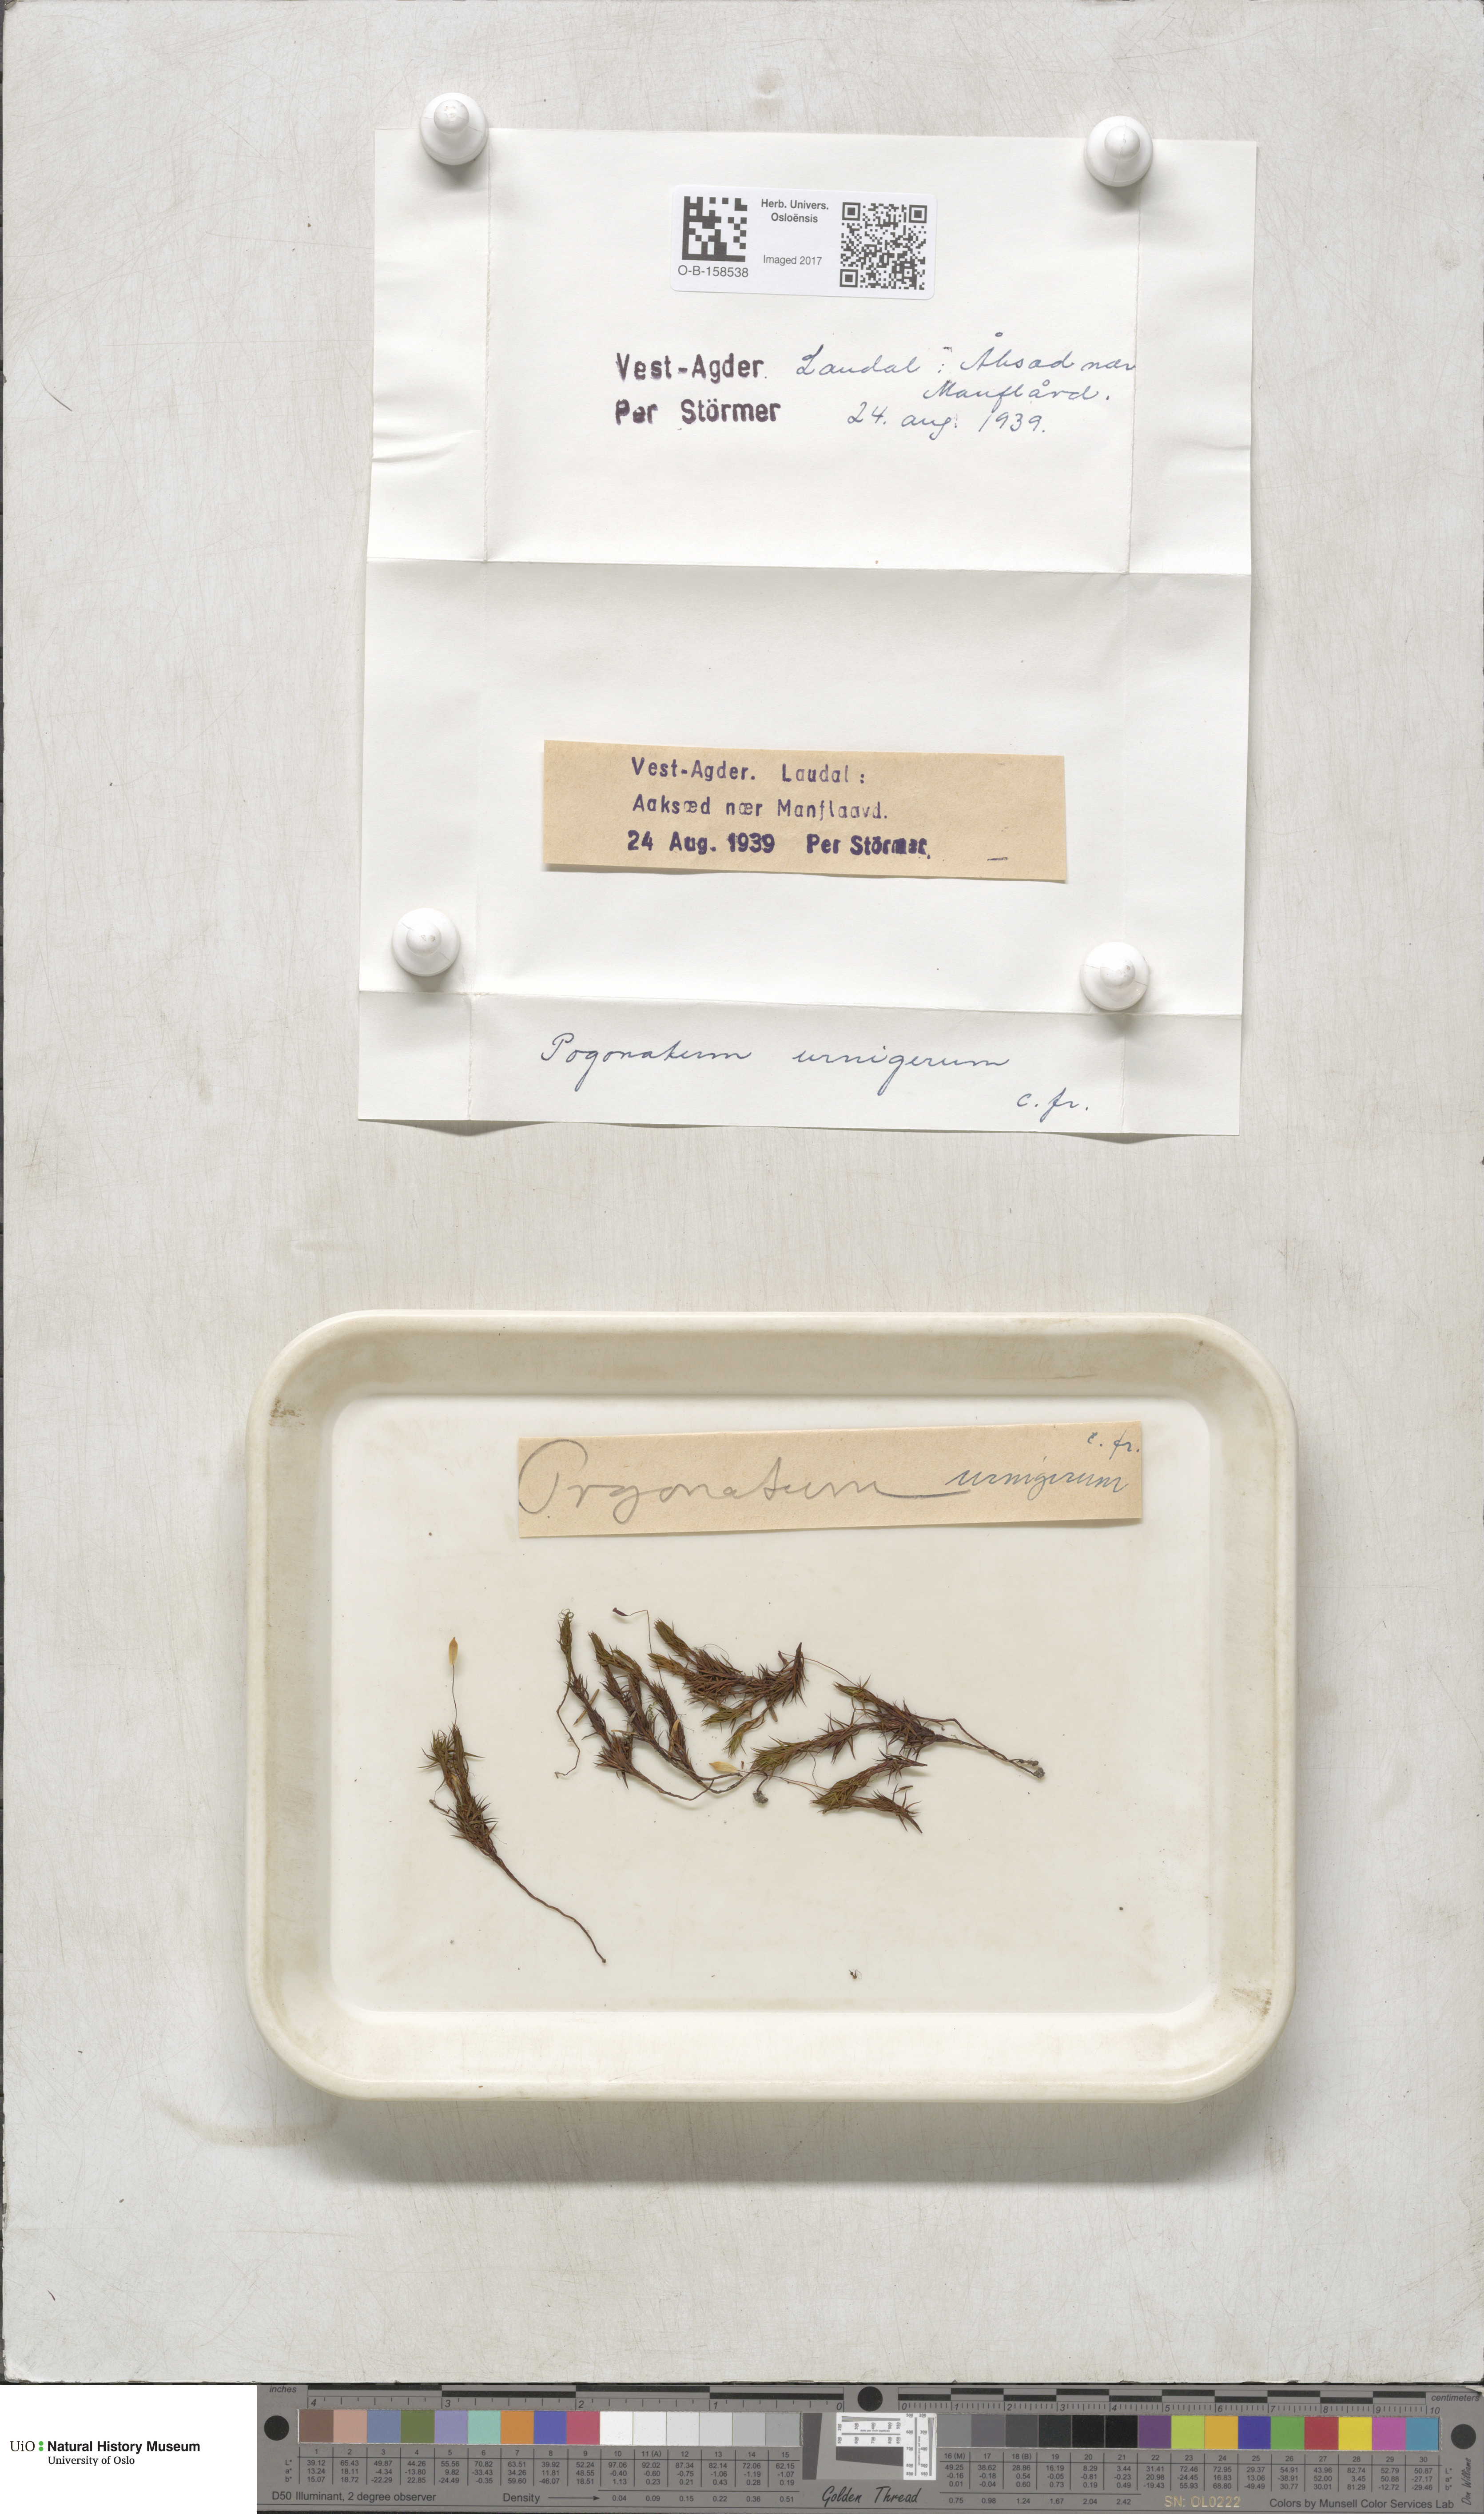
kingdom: Plantae
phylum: Bryophyta
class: Polytrichopsida
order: Polytrichales
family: Polytrichaceae
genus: Pogonatum
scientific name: Pogonatum urnigerum
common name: Urn hair moss
